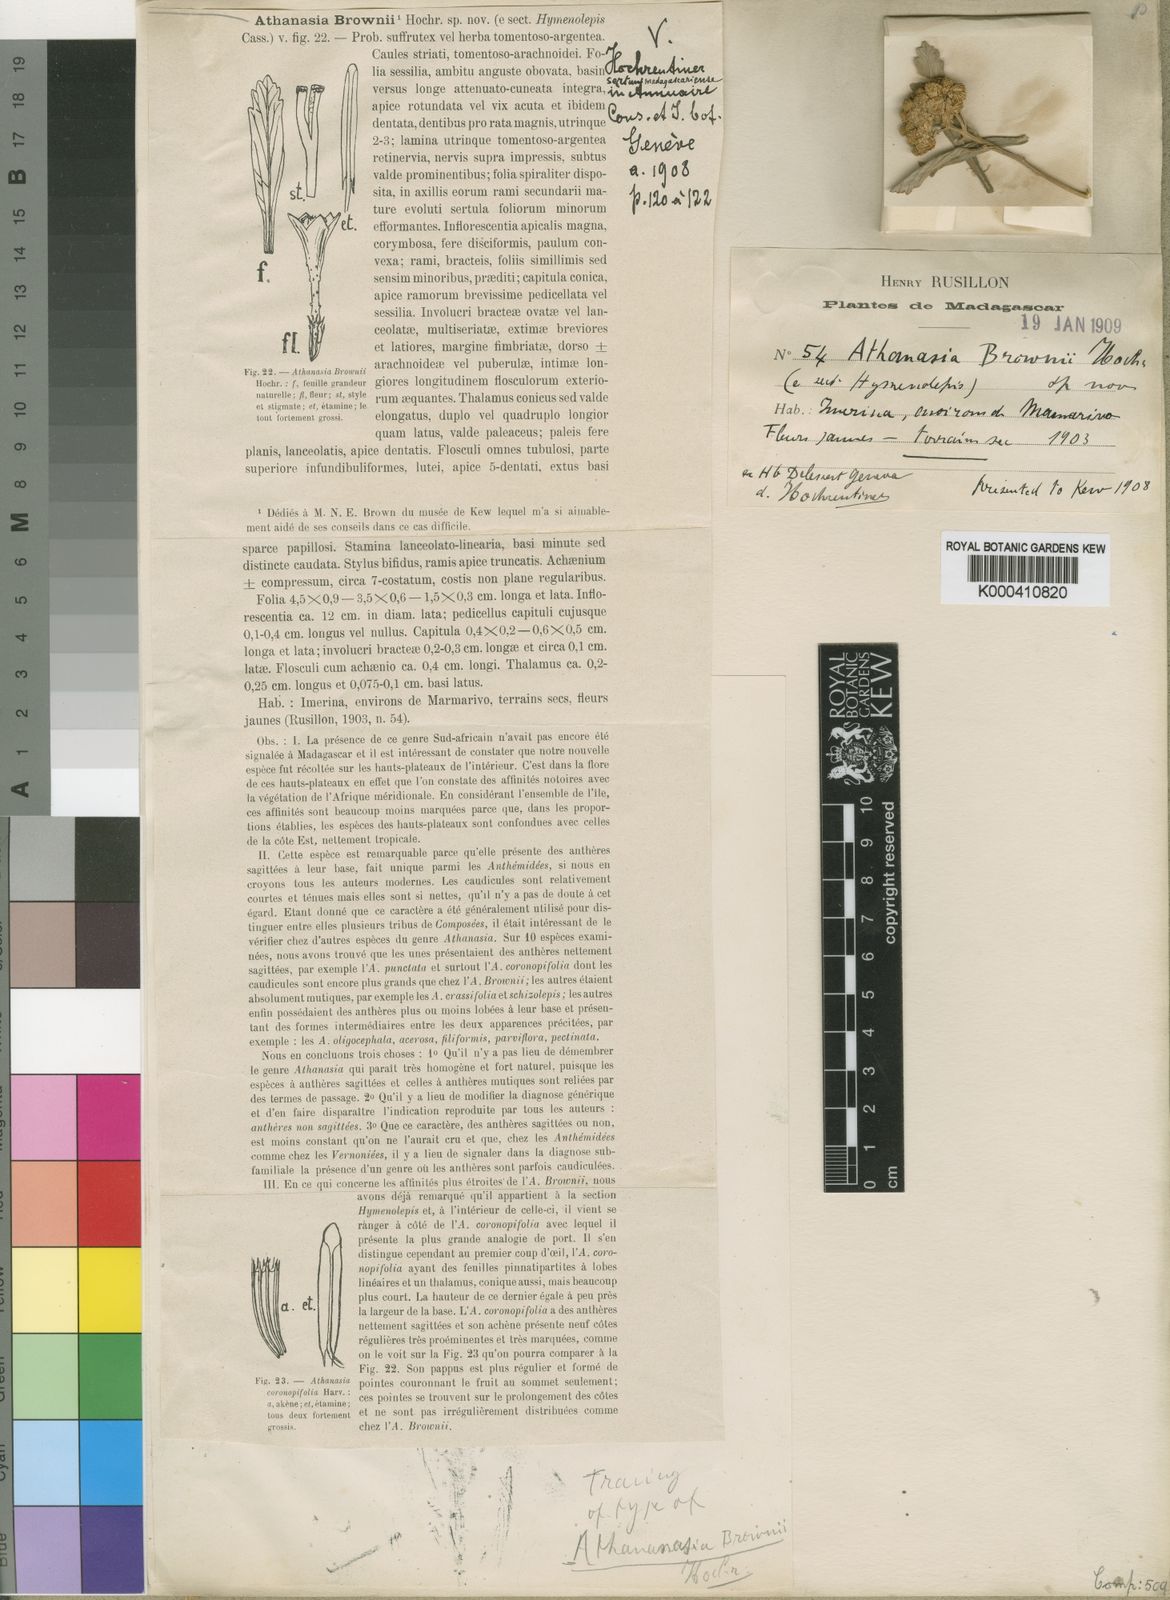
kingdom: Plantae
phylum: Tracheophyta
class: Magnoliopsida
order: Asterales
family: Asteraceae
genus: Inulanthera
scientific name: Inulanthera
